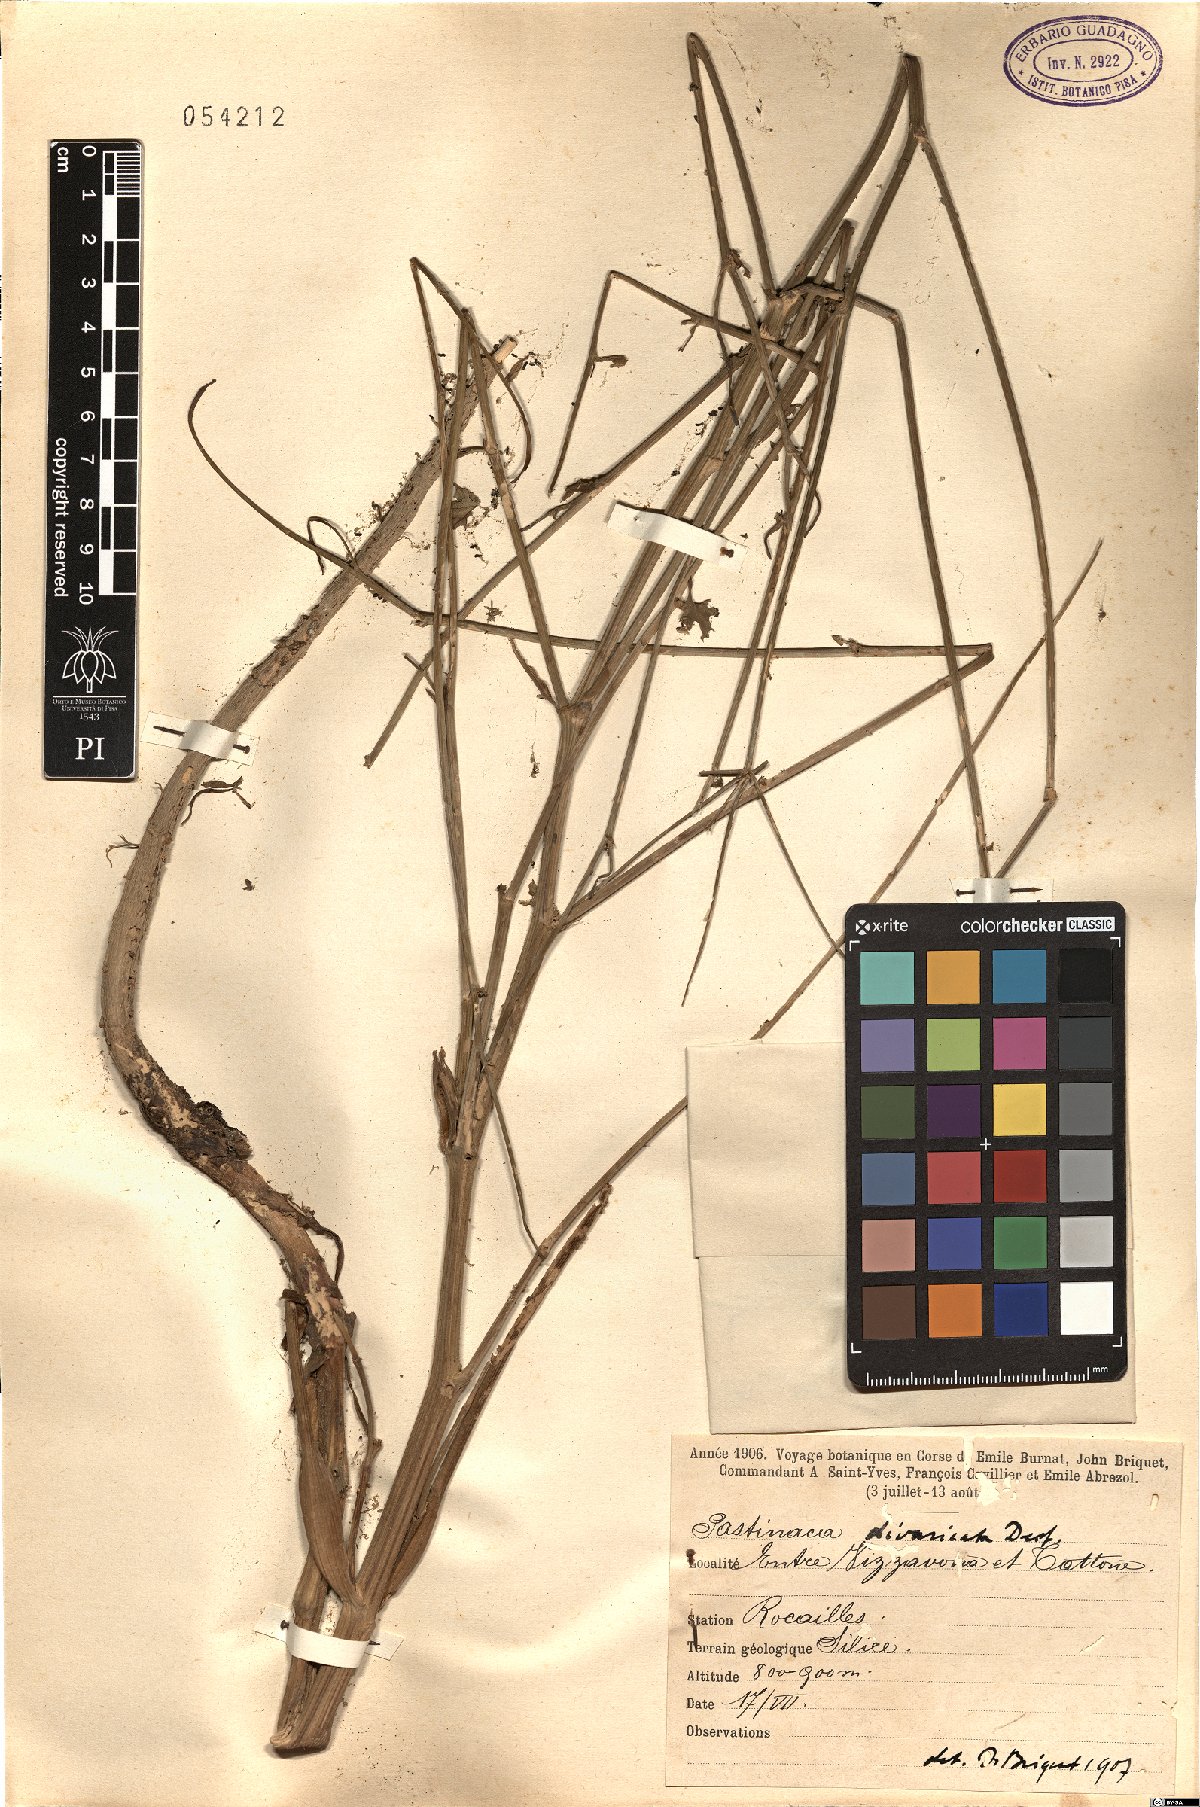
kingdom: Plantae
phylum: Tracheophyta
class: Magnoliopsida
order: Apiales
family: Apiaceae
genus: Pastinaca
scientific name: Pastinaca kochii
